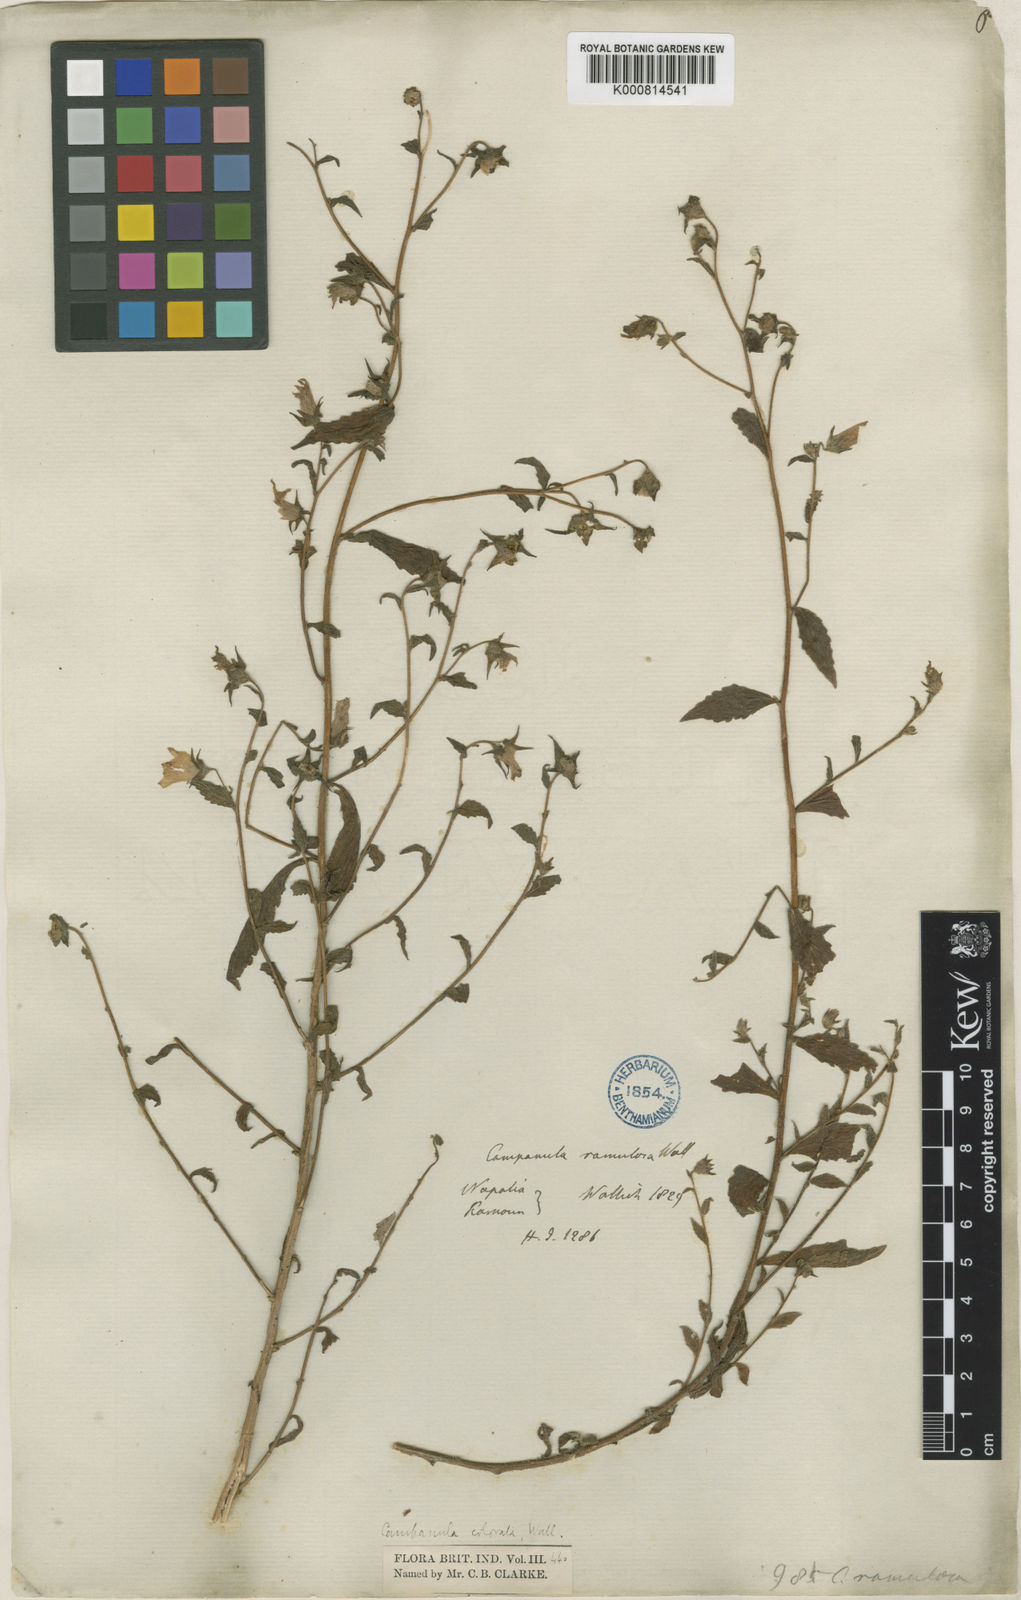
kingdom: Plantae
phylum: Tracheophyta
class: Magnoliopsida
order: Asterales
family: Campanulaceae
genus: Campanula
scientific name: Campanula pallida
